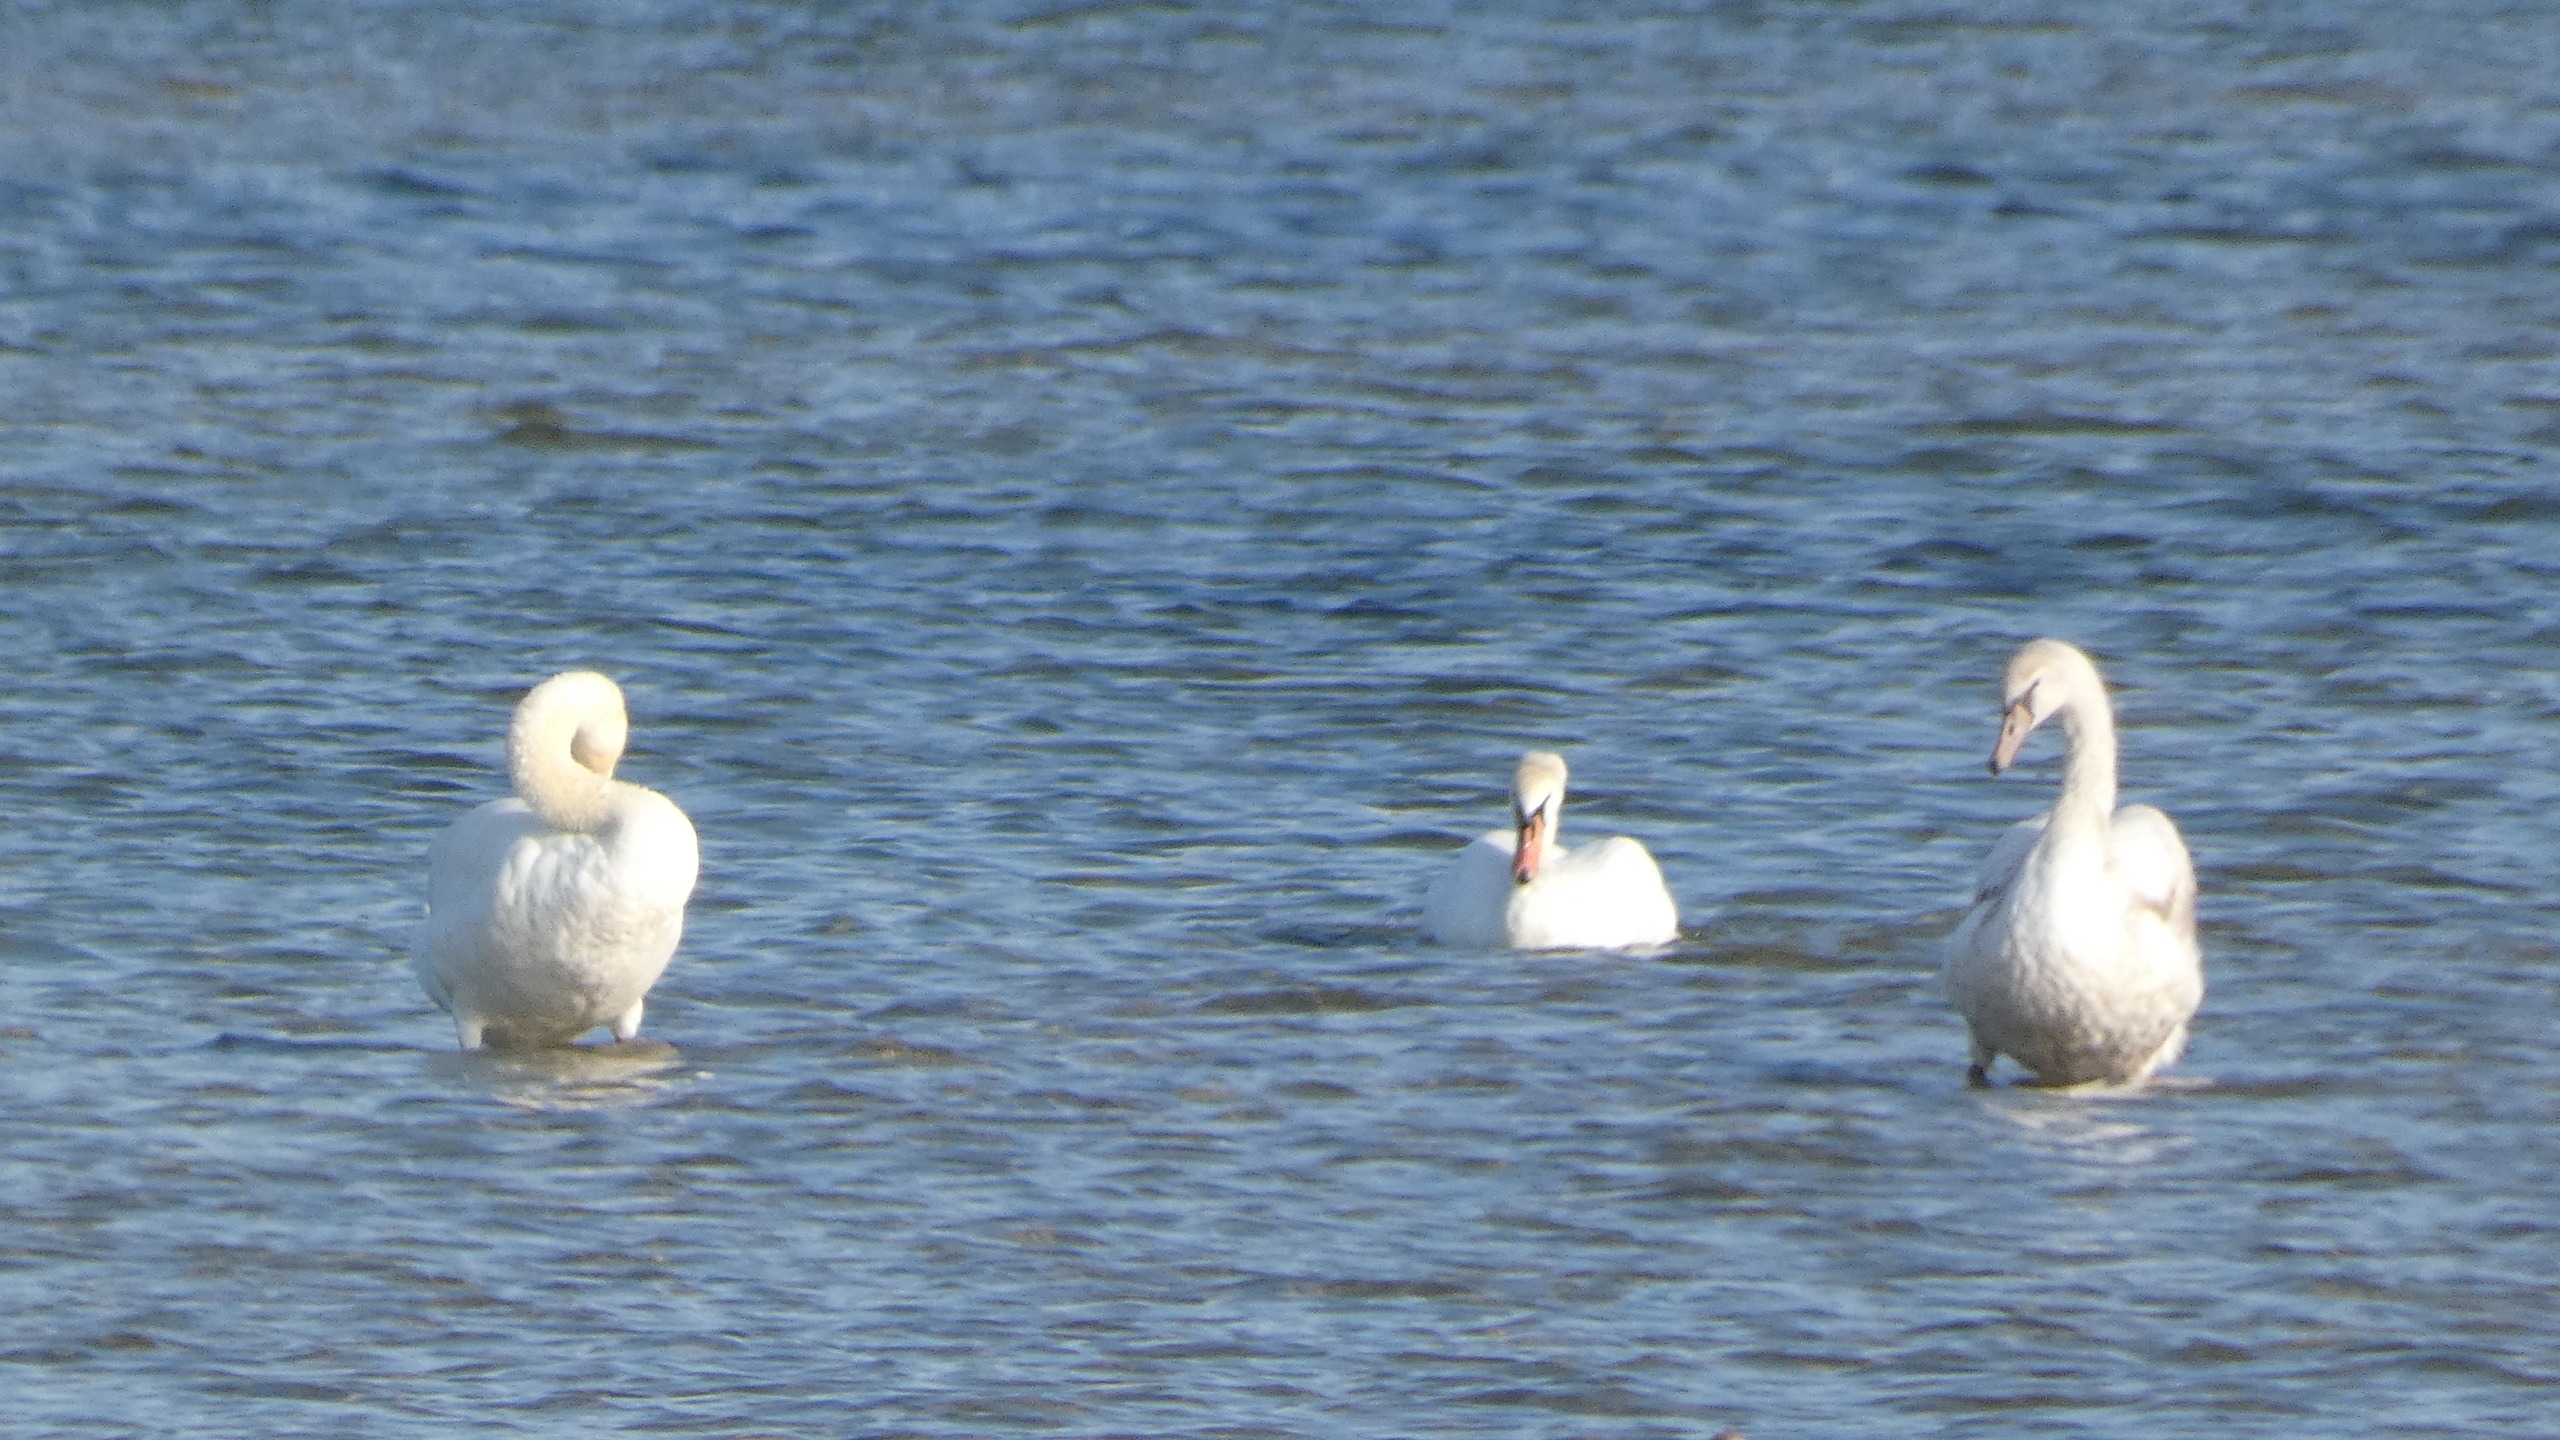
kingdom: Animalia
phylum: Chordata
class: Aves
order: Anseriformes
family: Anatidae
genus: Cygnus
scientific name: Cygnus olor
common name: Knopsvane
